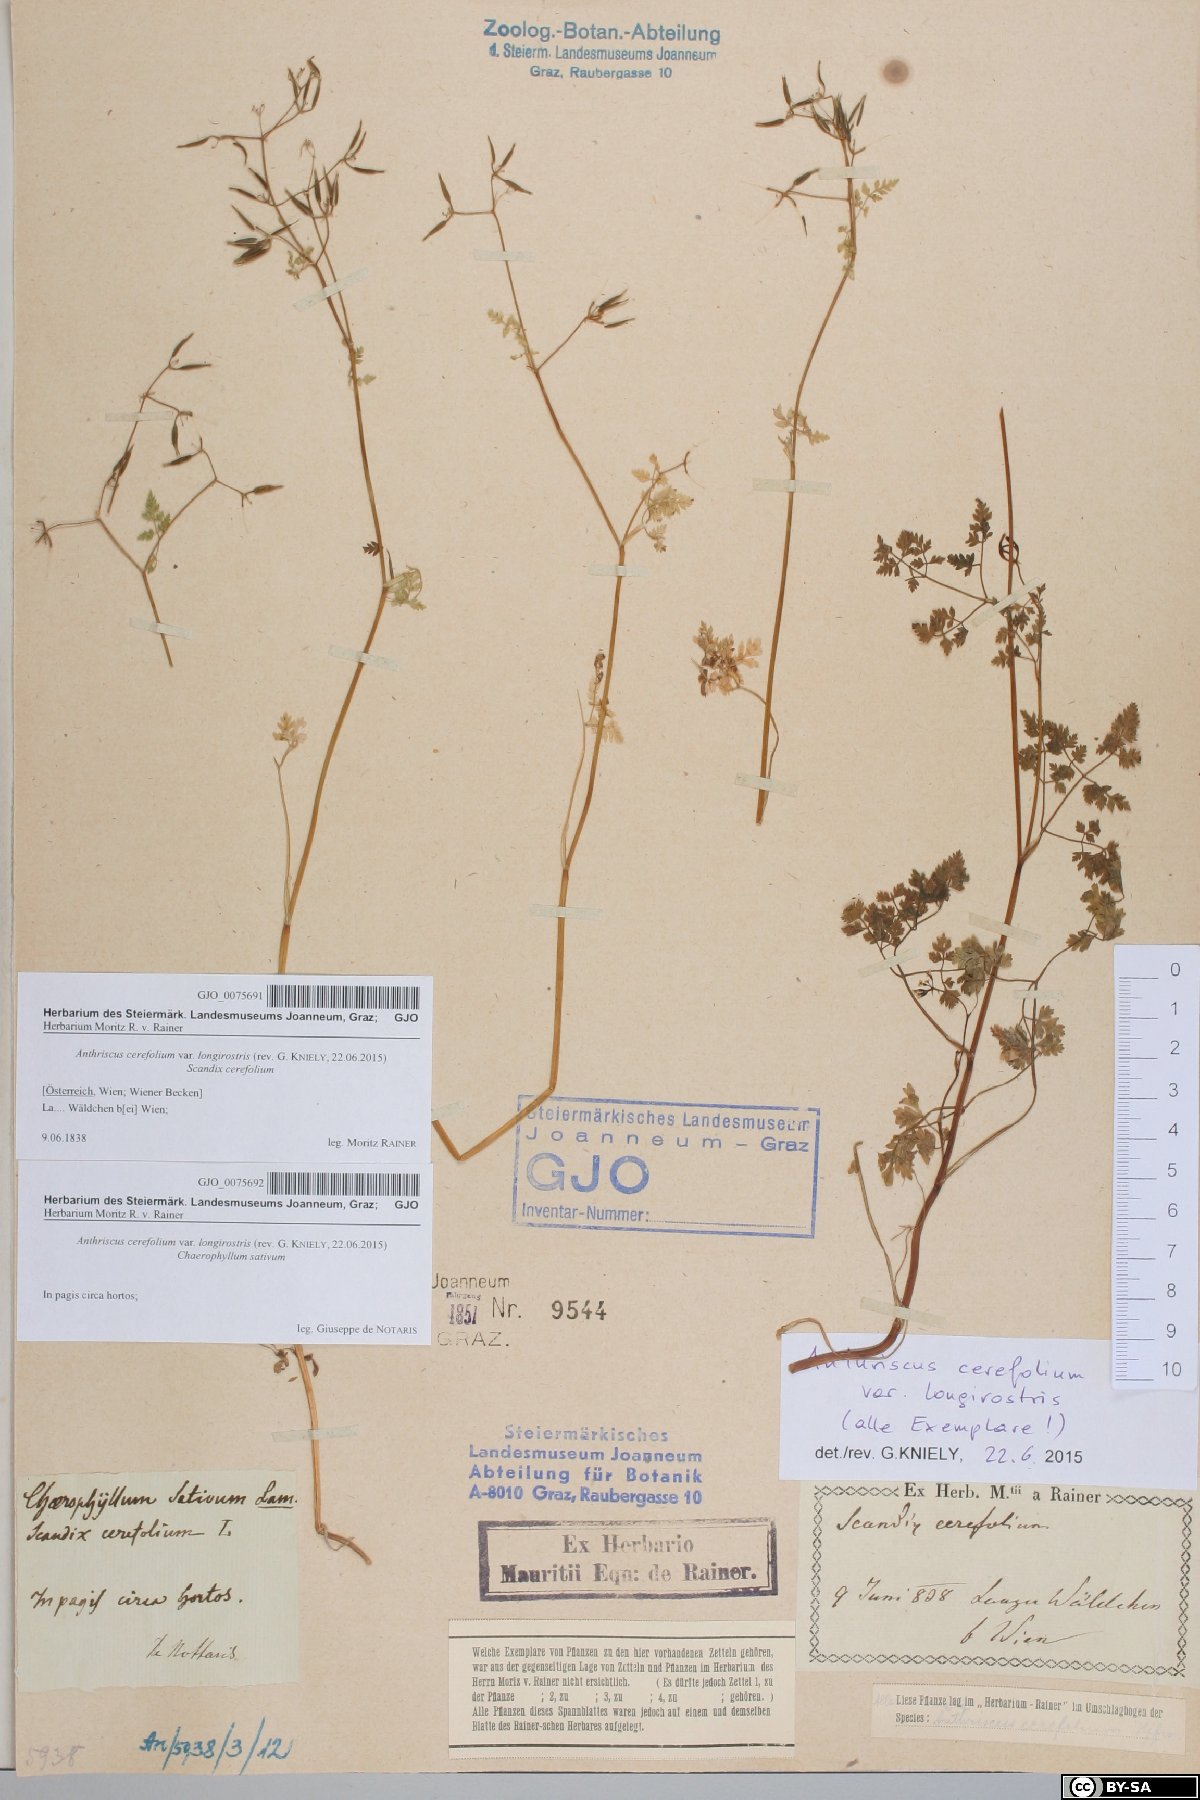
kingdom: Plantae
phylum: Tracheophyta
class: Magnoliopsida
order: Apiales
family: Apiaceae
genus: Anthriscus
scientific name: Anthriscus cerefolium
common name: Garden chervil
